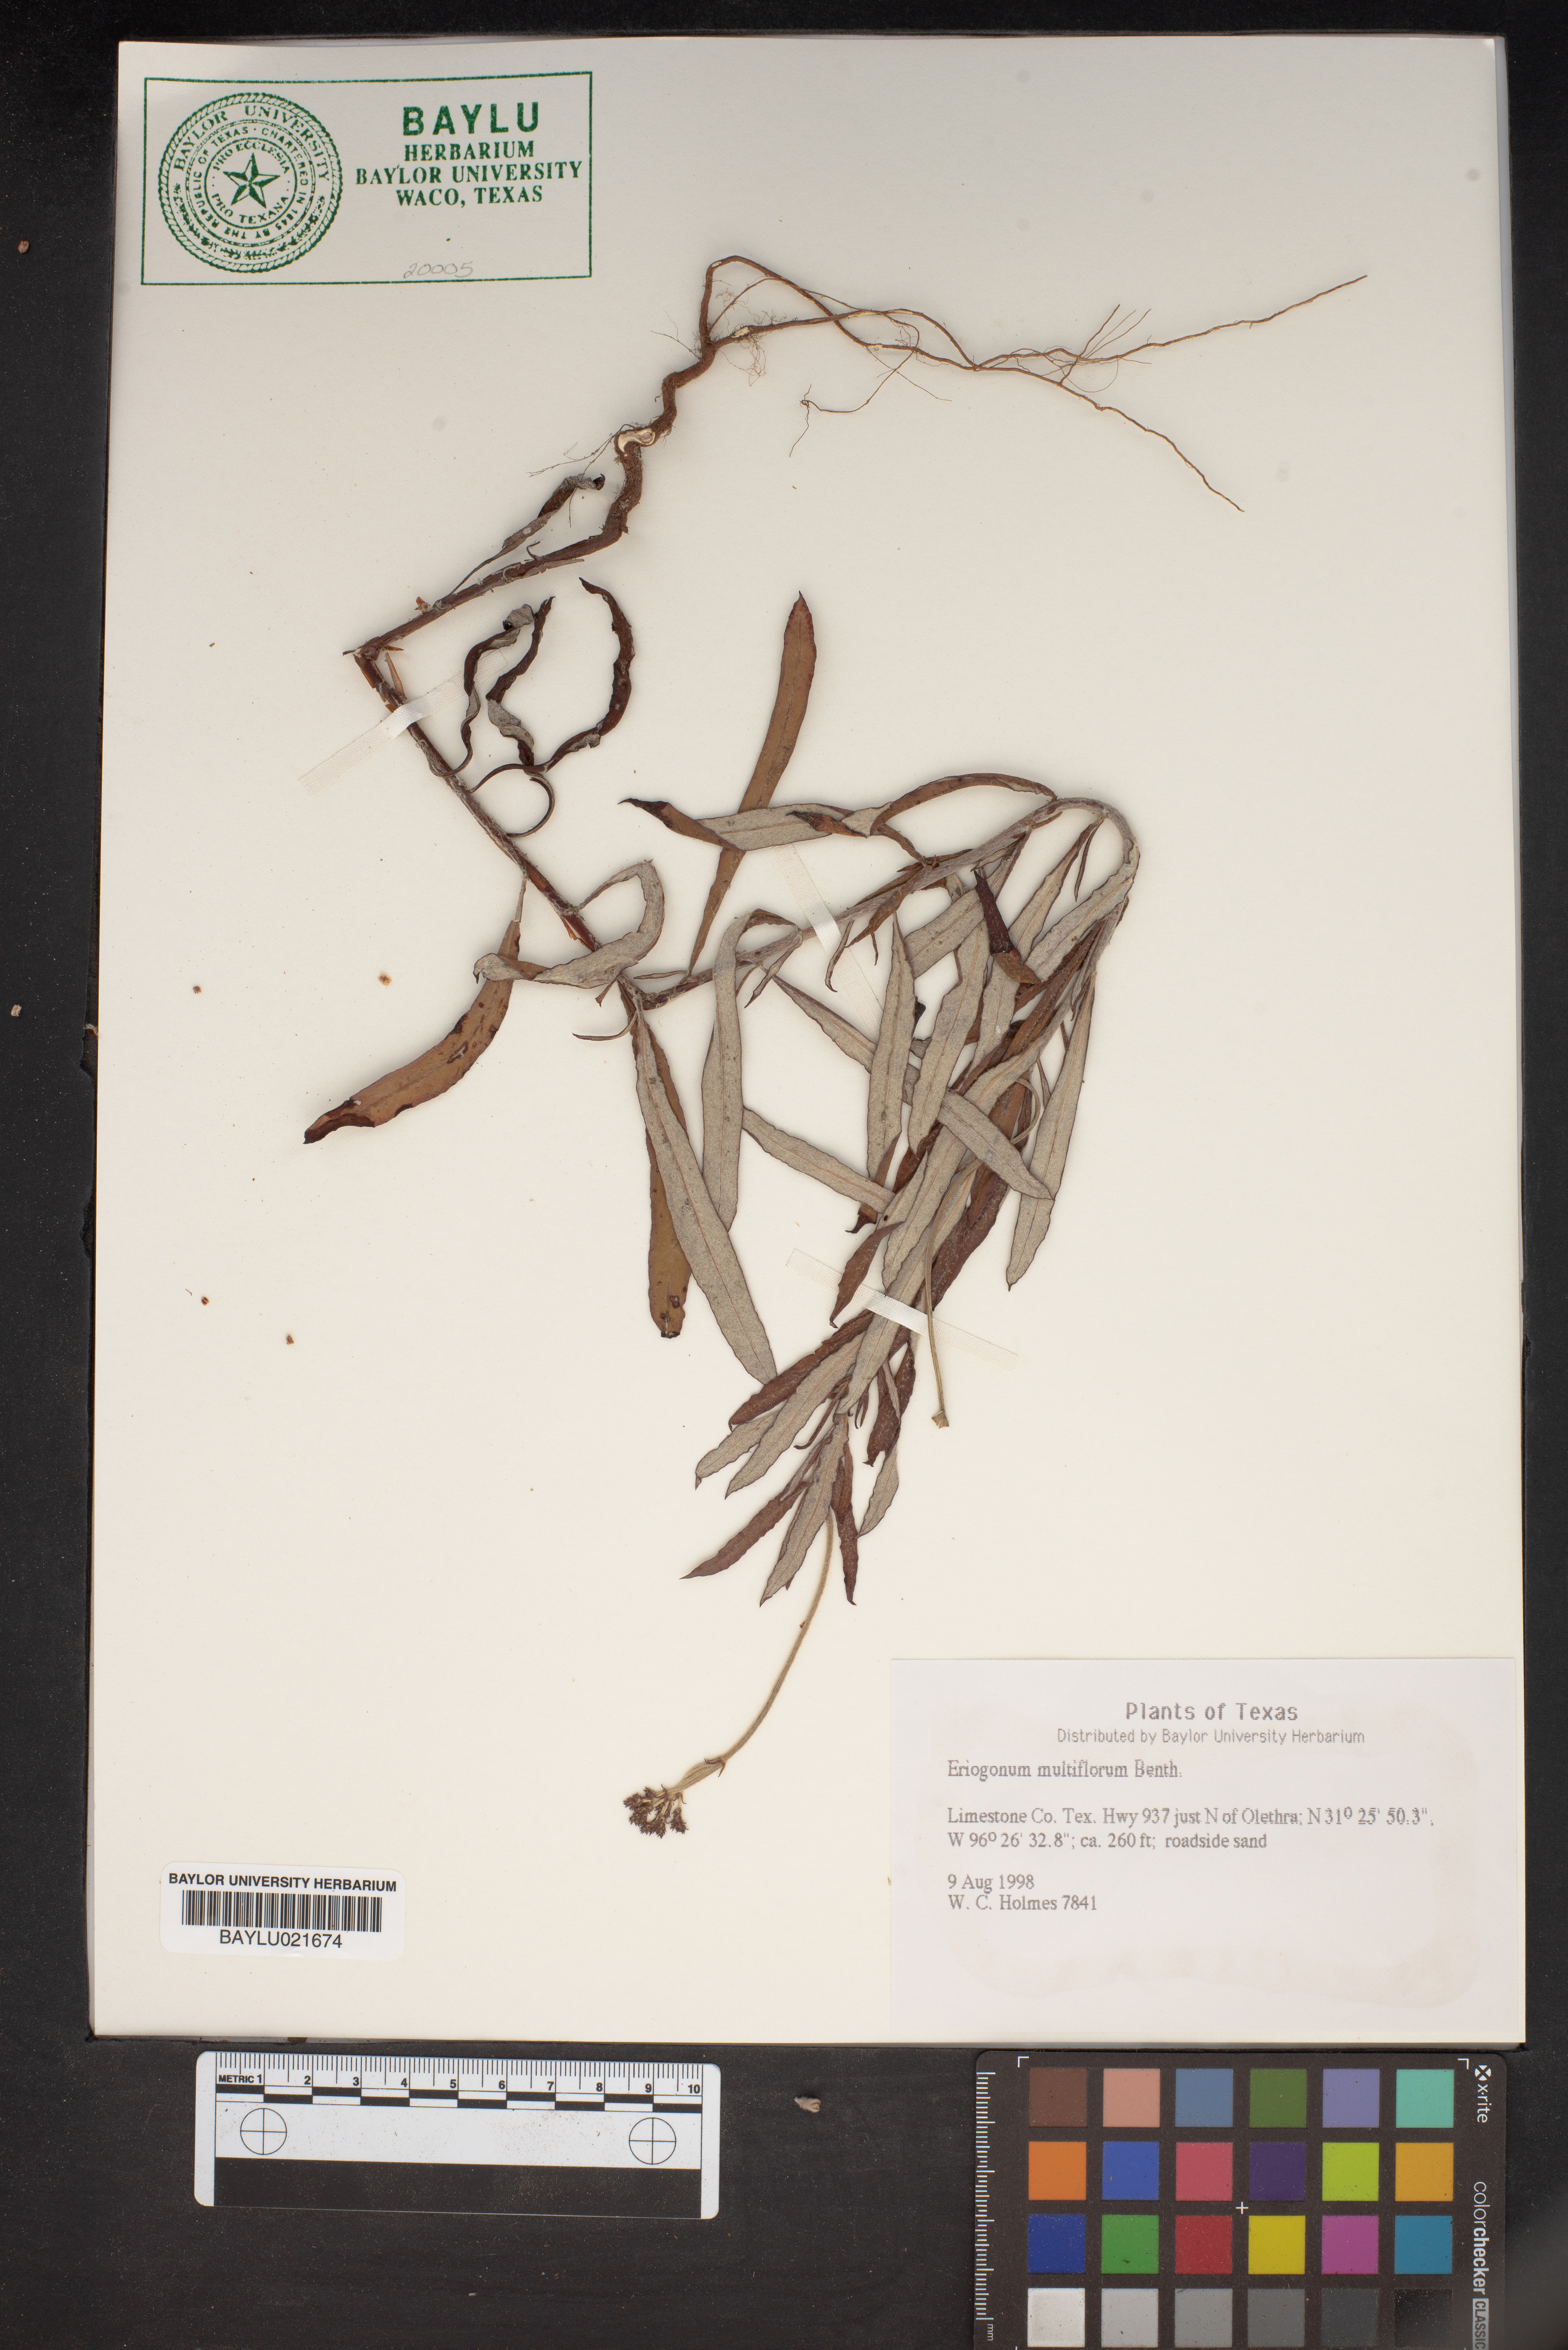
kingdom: Plantae
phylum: Tracheophyta
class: Magnoliopsida
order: Caryophyllales
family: Polygonaceae
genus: Eriogonum
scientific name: Eriogonum multiflorum
